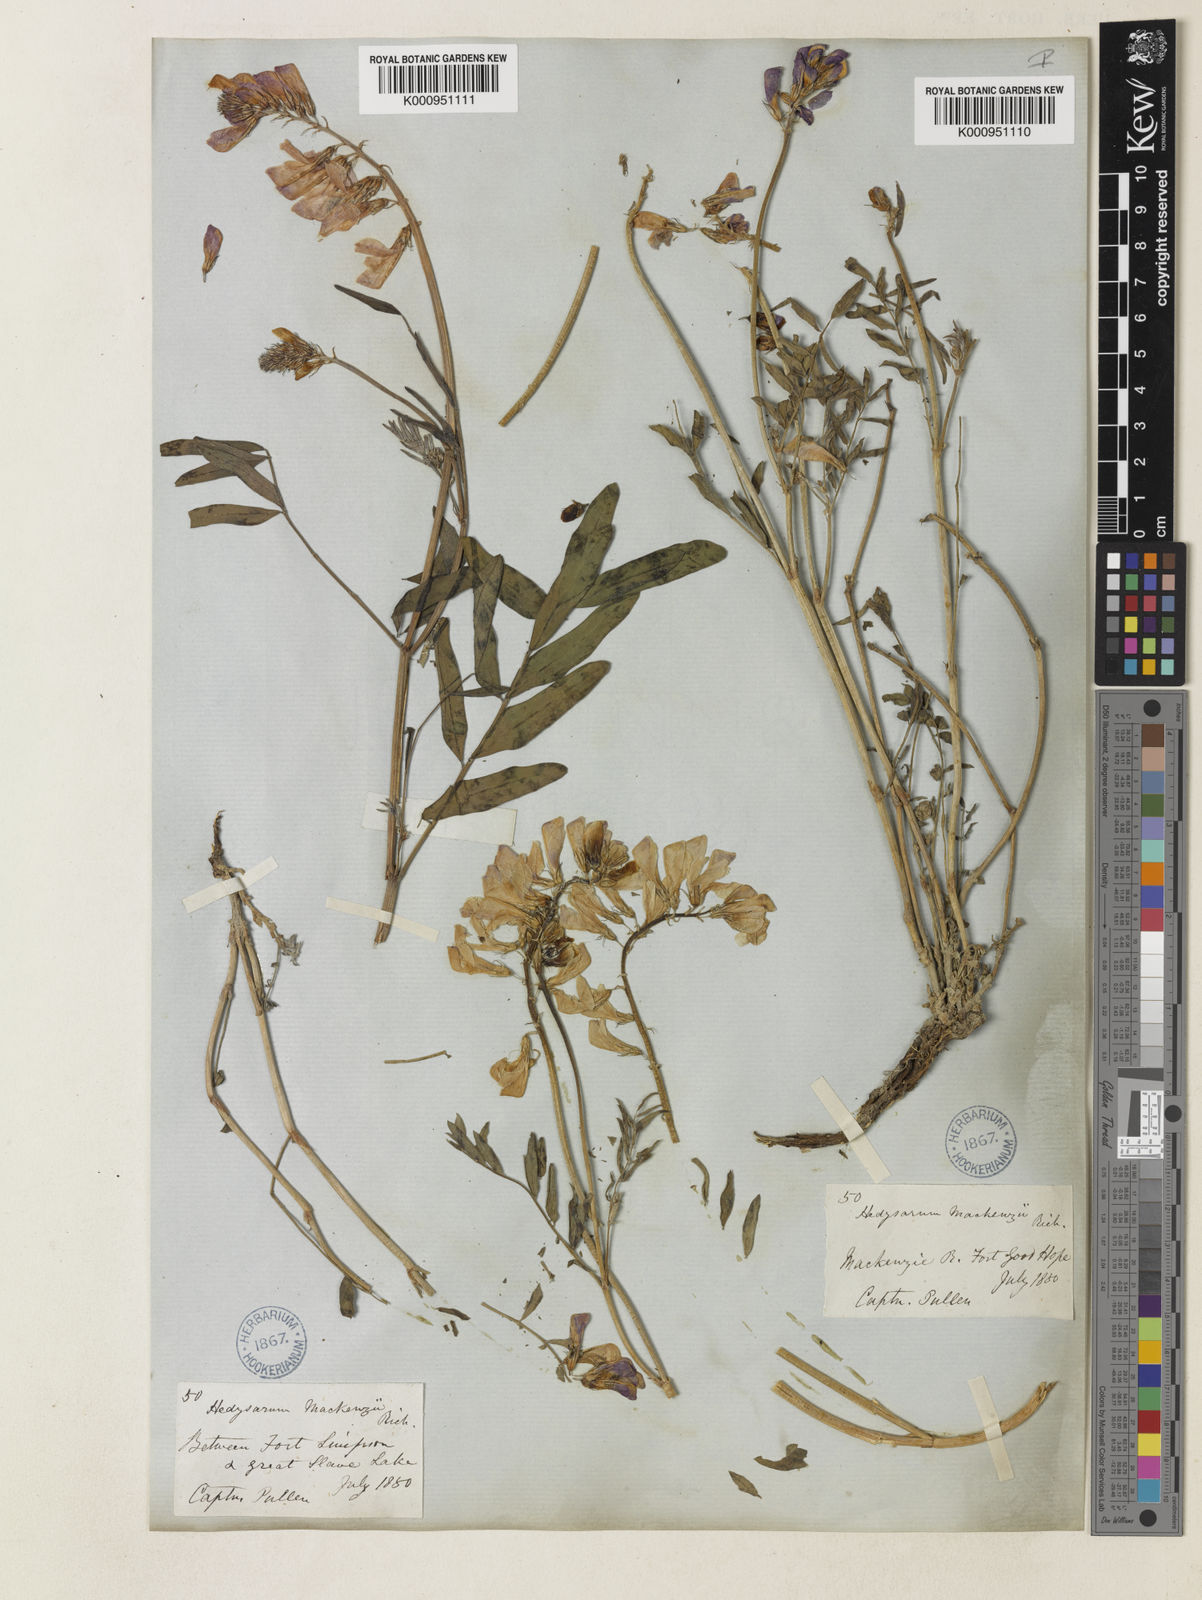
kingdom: Plantae
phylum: Tracheophyta
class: Magnoliopsida
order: Fabales
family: Fabaceae
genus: Hedysarum
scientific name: Hedysarum boreale
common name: Northern sweet-vetch
